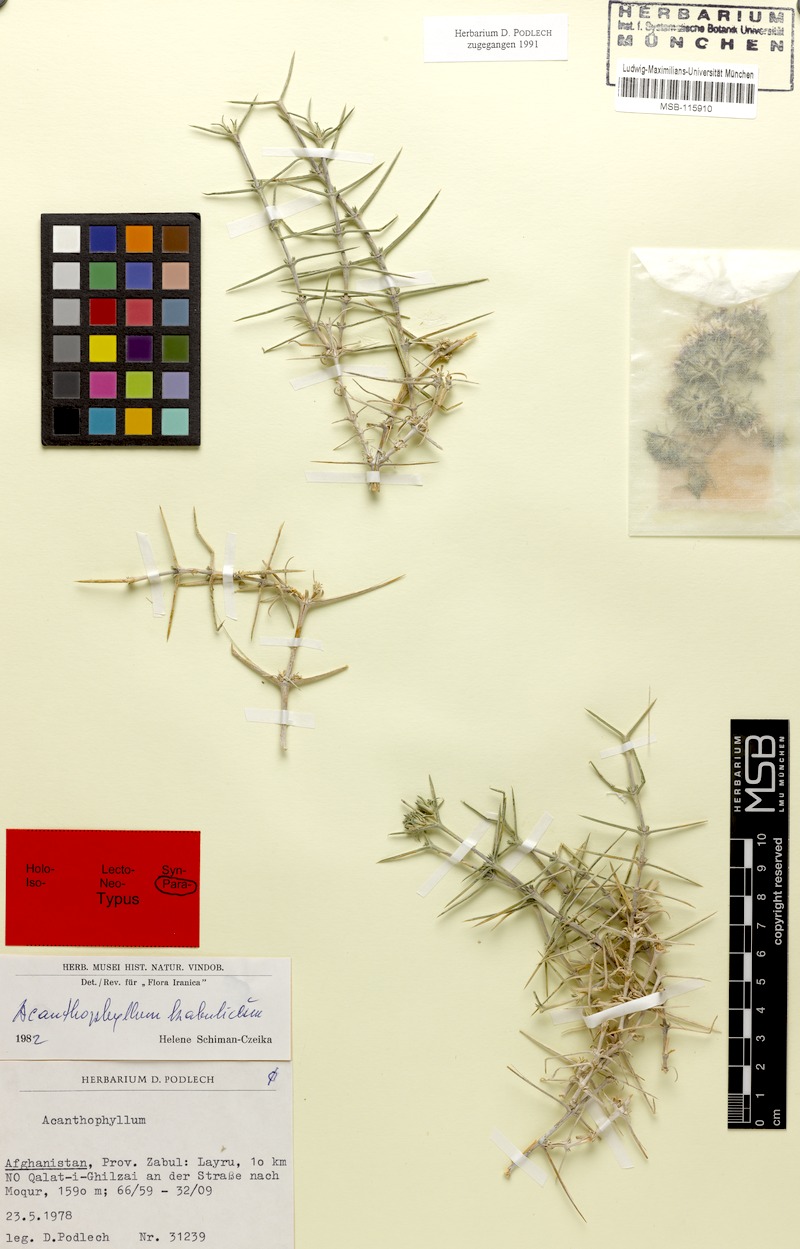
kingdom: Plantae
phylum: Tracheophyta
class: Magnoliopsida
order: Caryophyllales
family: Caryophyllaceae
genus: Acanthophyllum
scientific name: Acanthophyllum kabulicum
